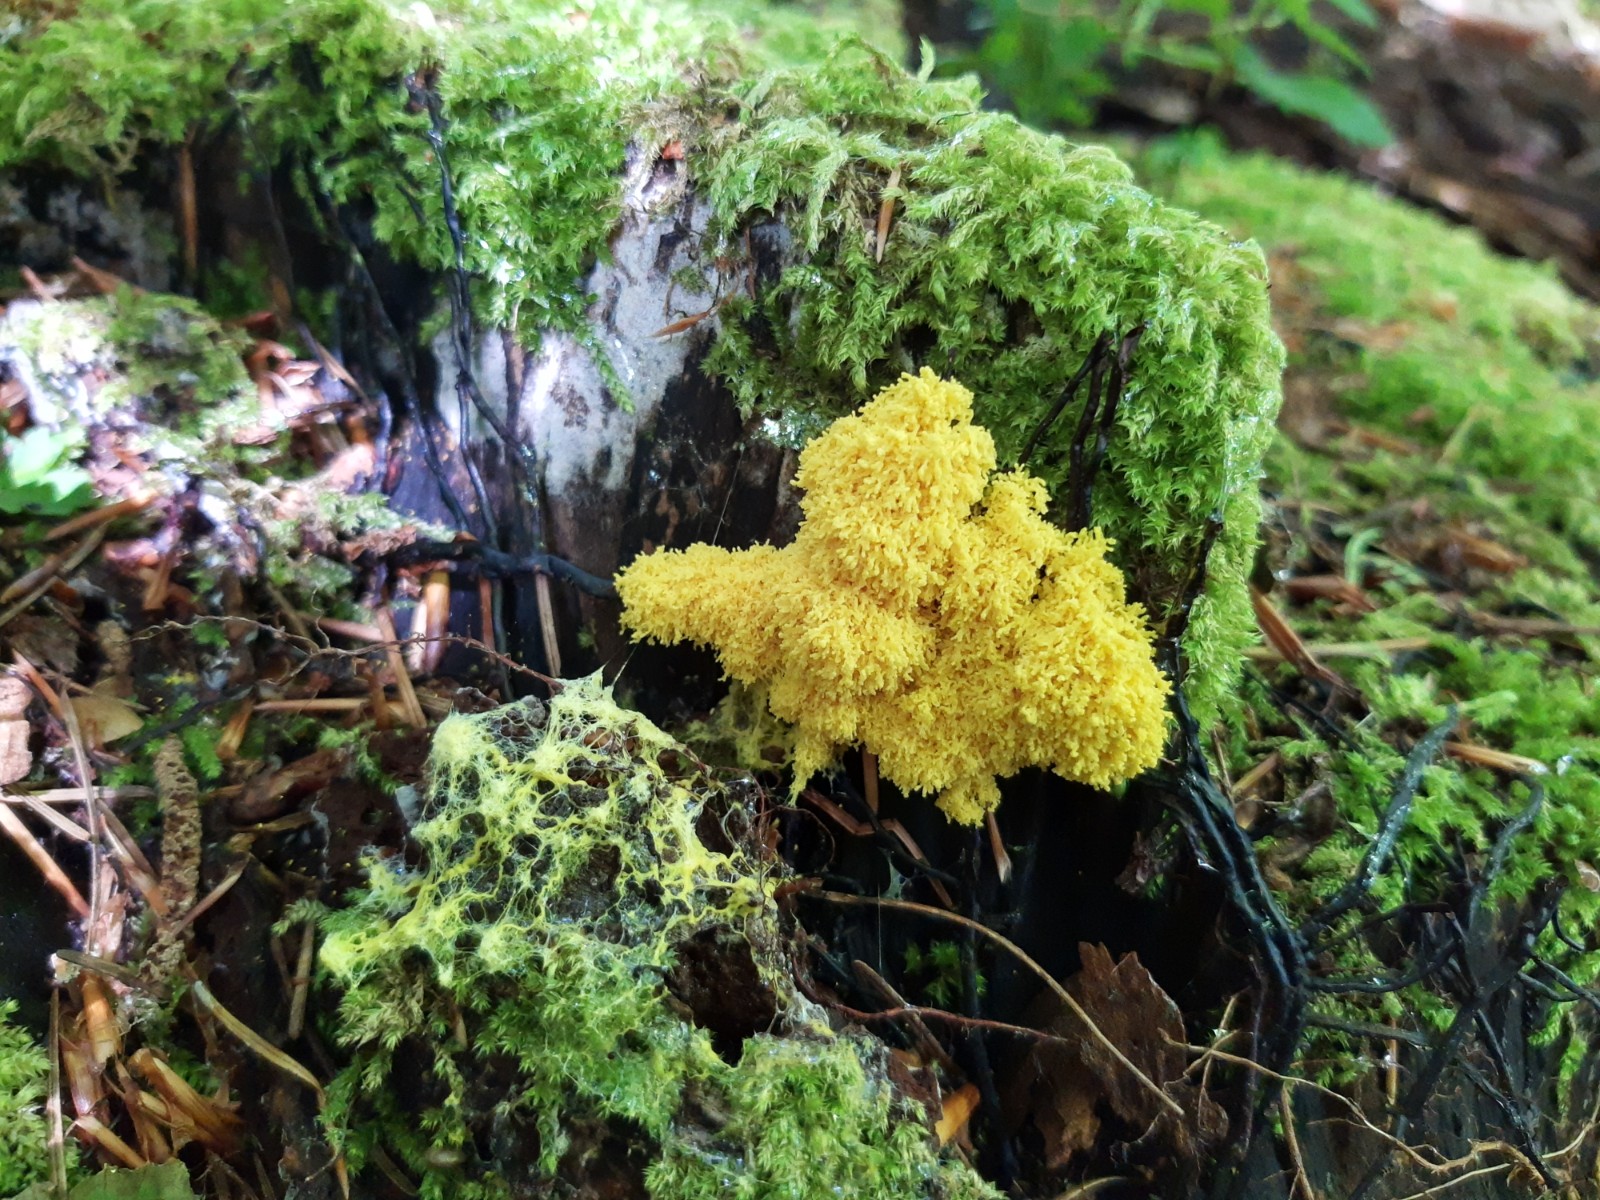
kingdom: Protozoa
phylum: Mycetozoa
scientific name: Mycetozoa
